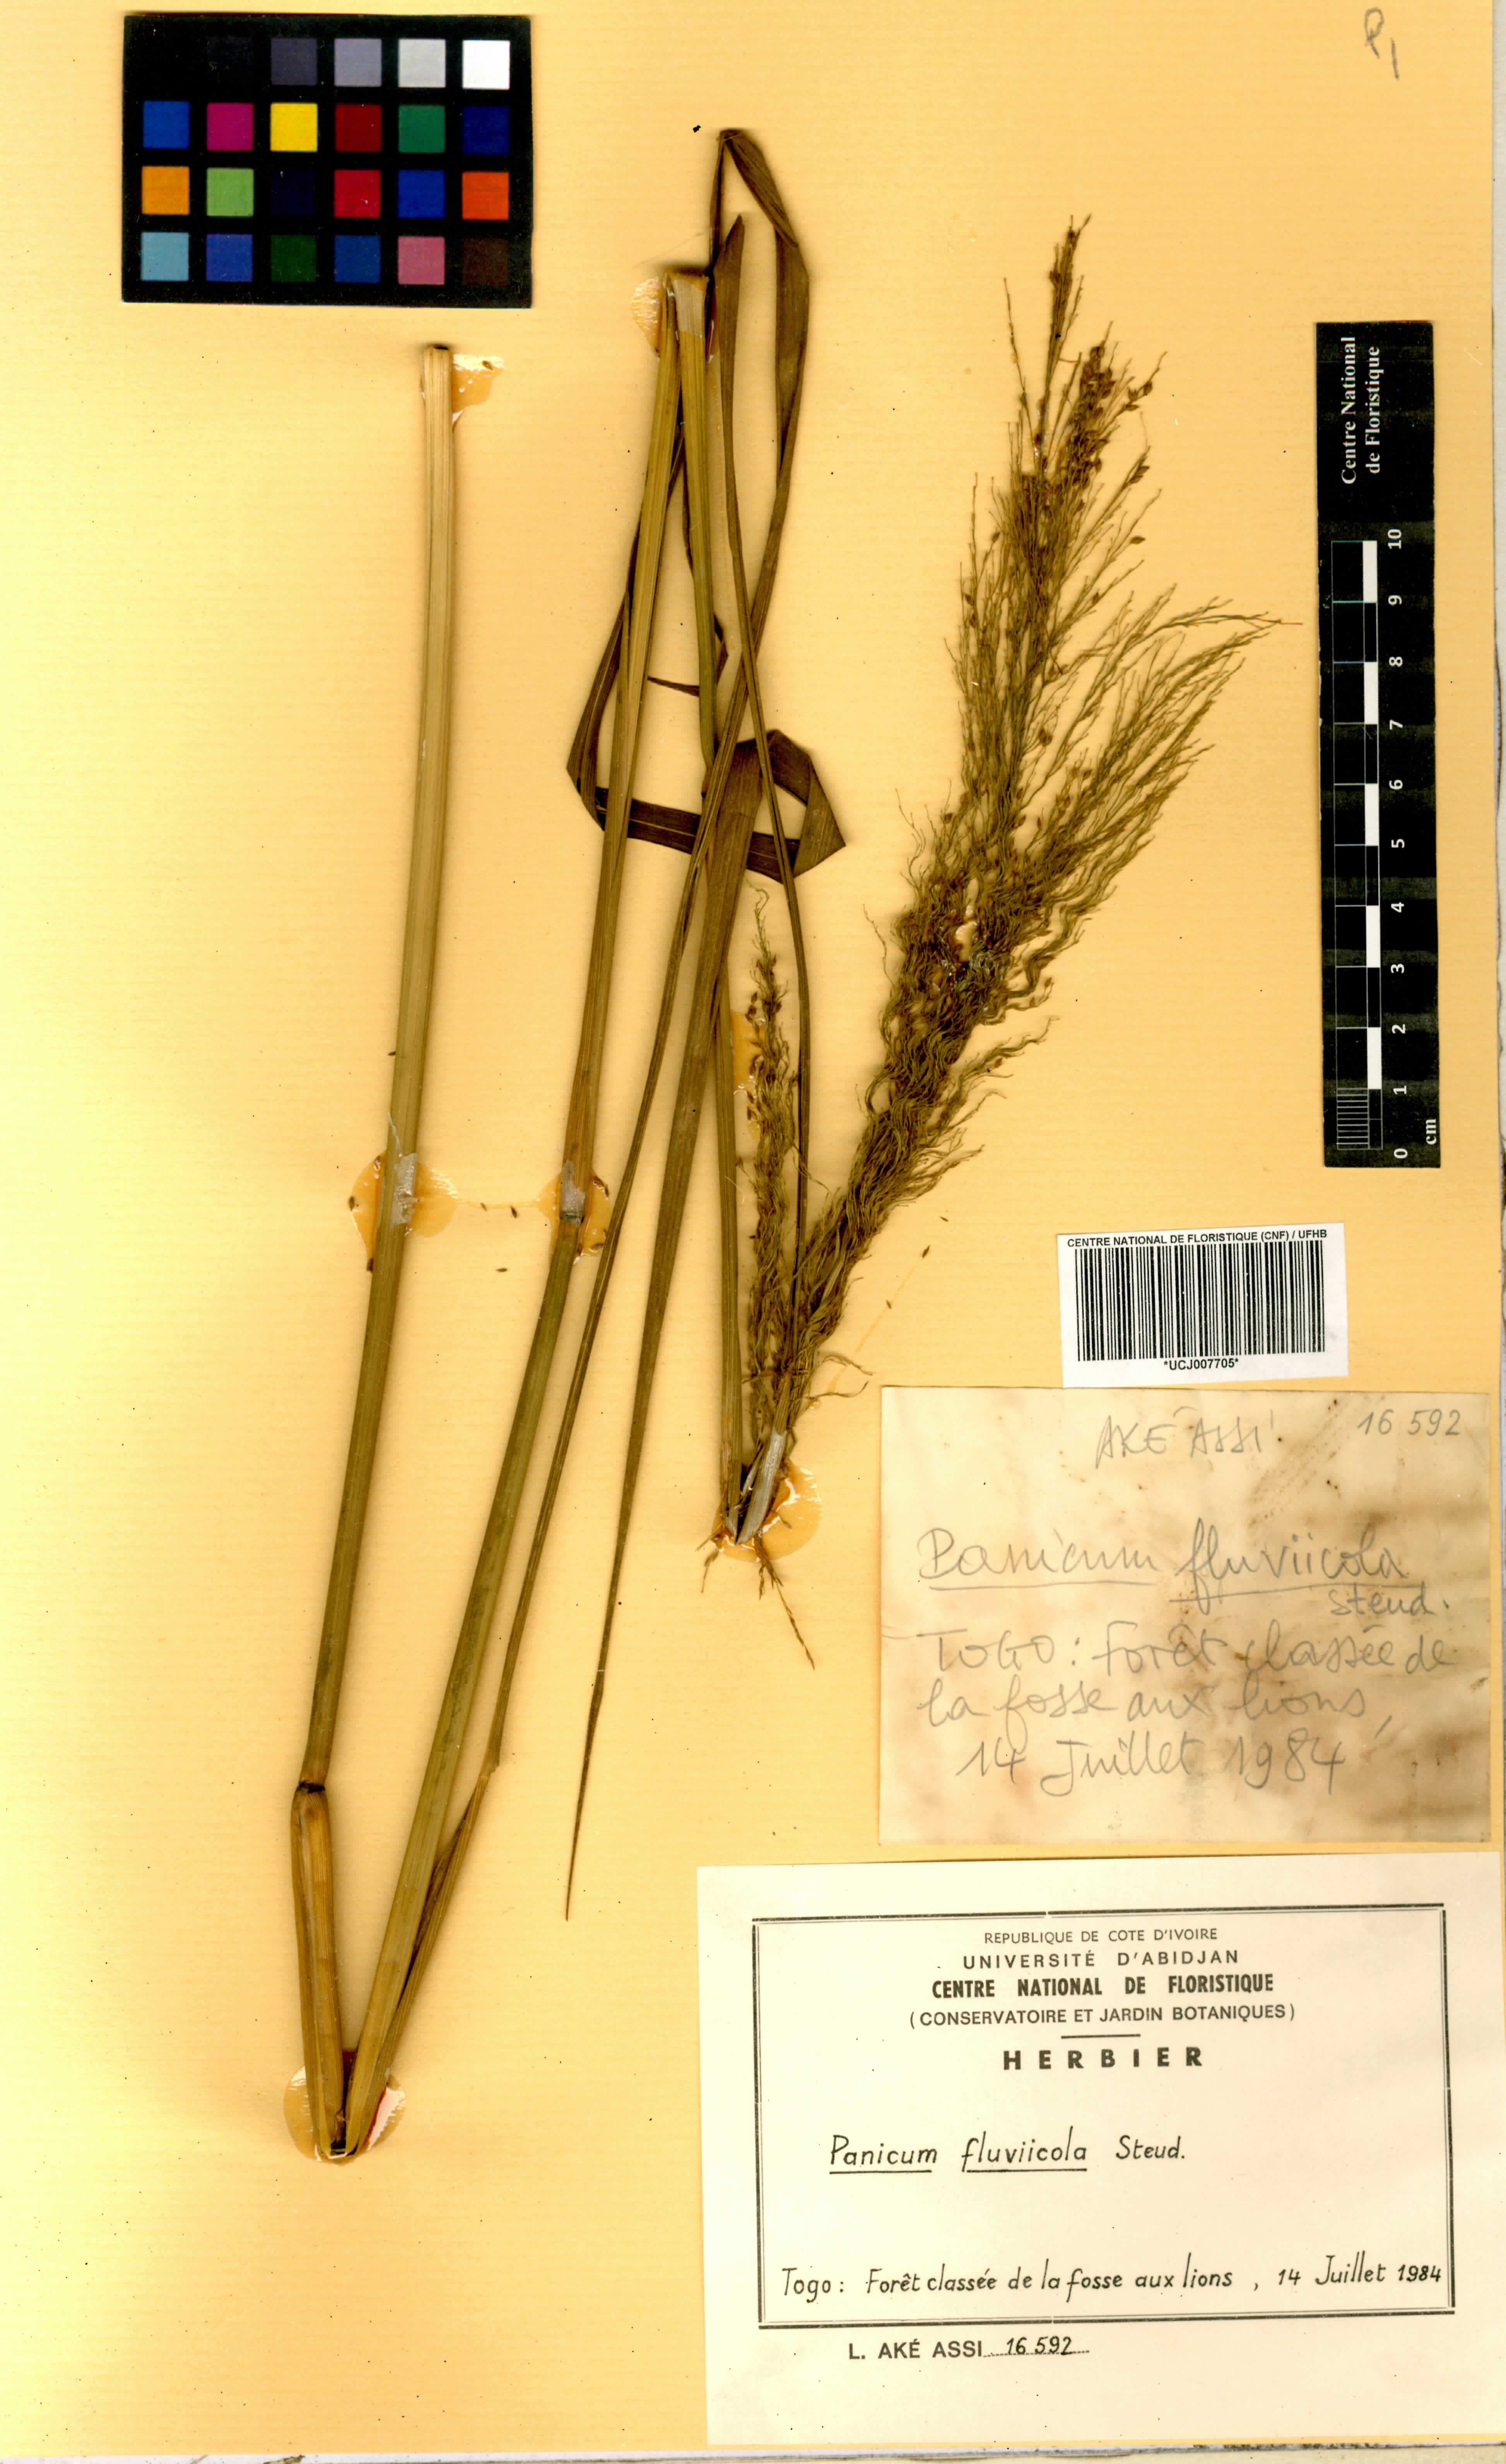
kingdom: Plantae
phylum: Tracheophyta
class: Liliopsida
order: Poales
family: Poaceae
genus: Panicum
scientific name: Panicum fluviicola
